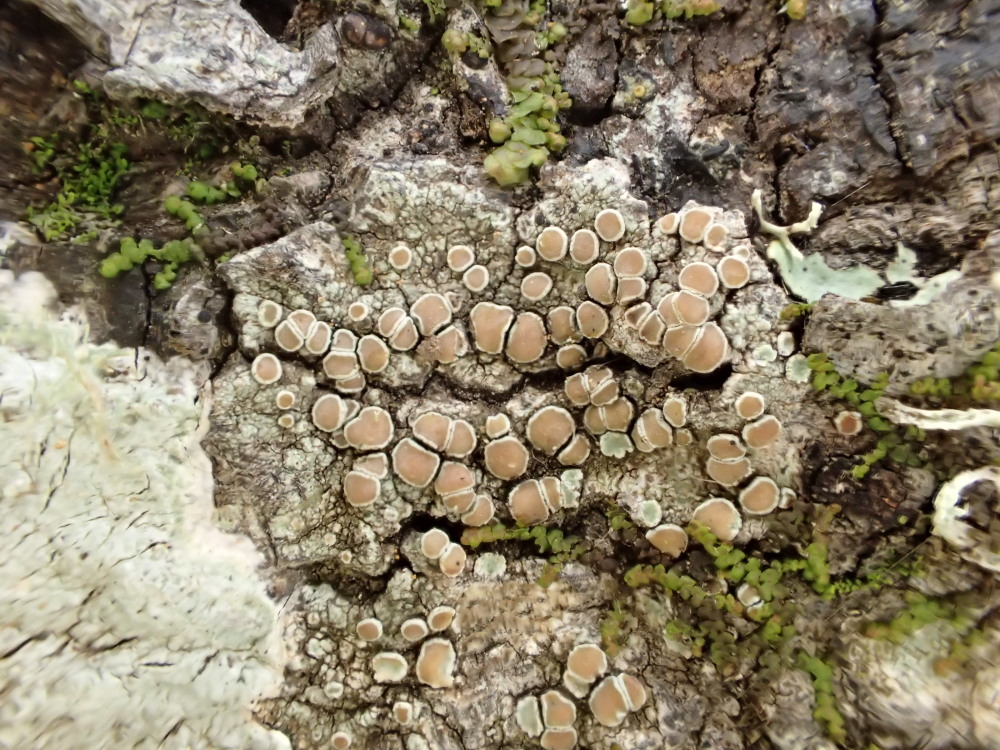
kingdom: Fungi
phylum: Ascomycota
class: Lecanoromycetes
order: Lecanorales
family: Lecanoraceae
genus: Lecanora
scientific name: Lecanora chlarotera
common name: brun kantskivelav
